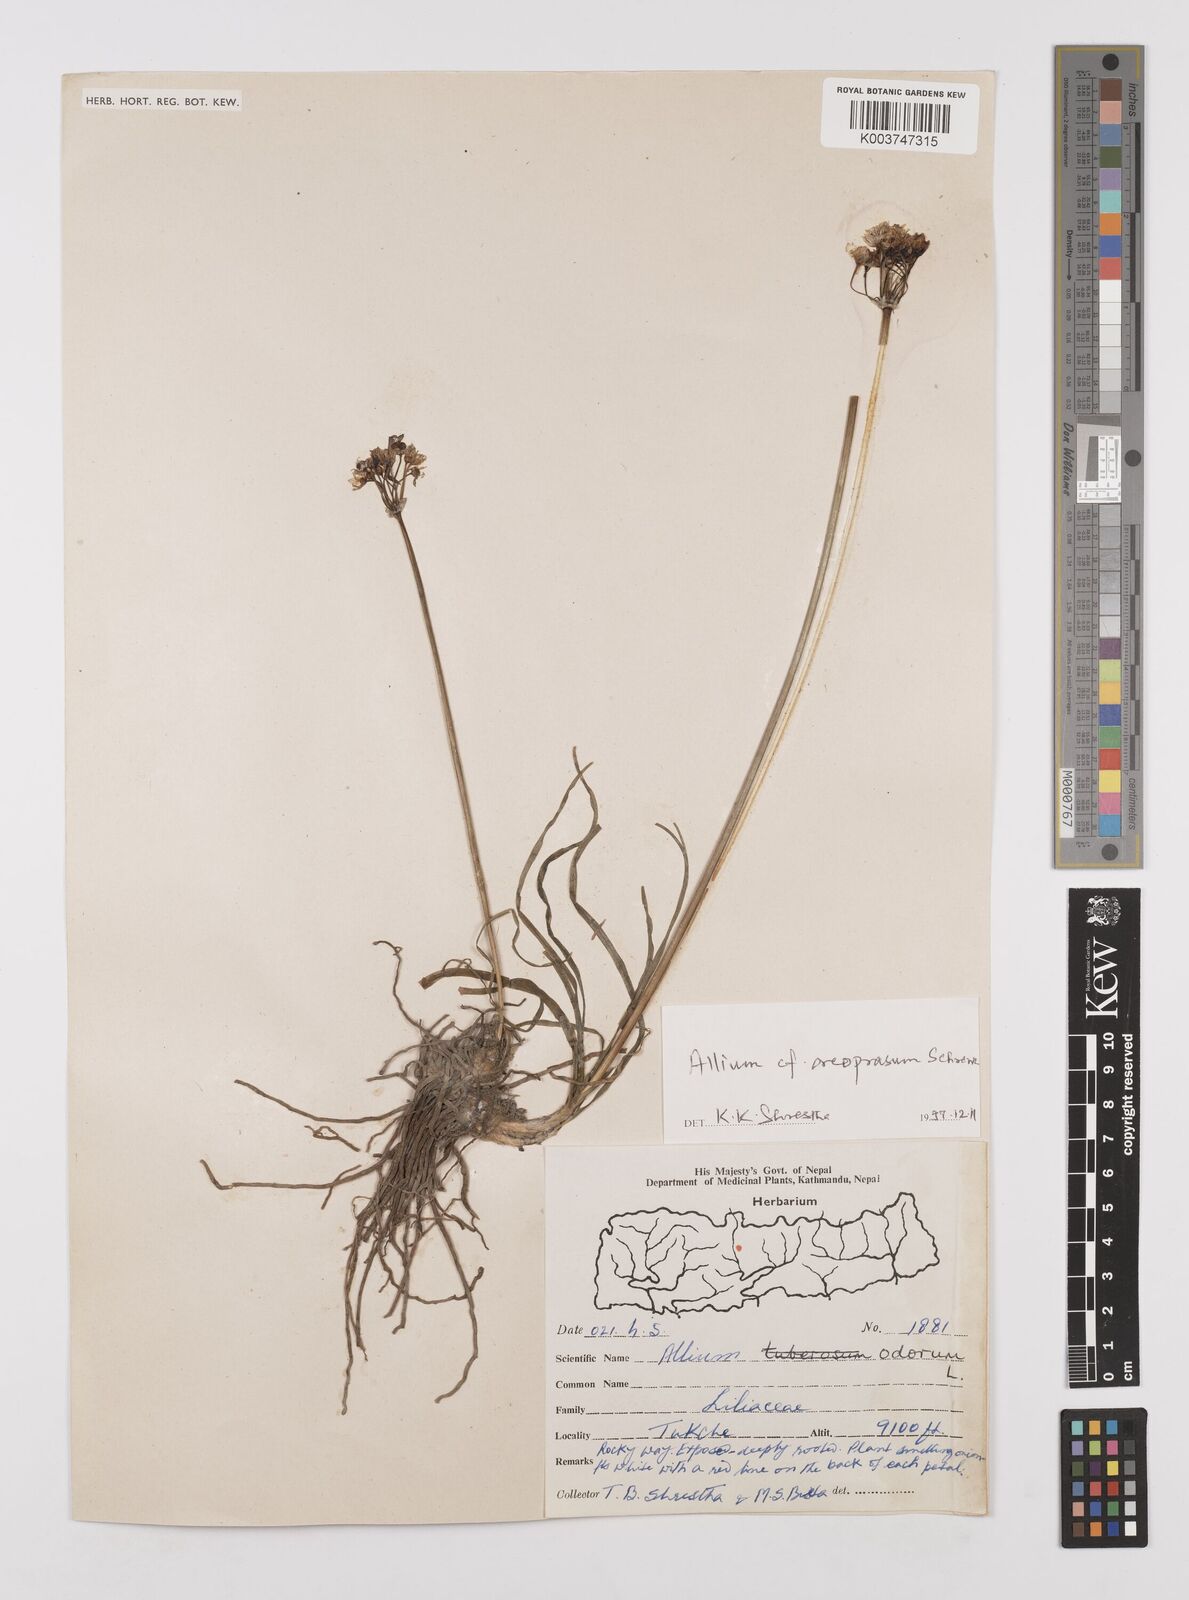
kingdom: Plantae
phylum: Tracheophyta
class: Liliopsida
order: Asparagales
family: Amaryllidaceae
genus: Allium
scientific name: Allium oreoprasum
